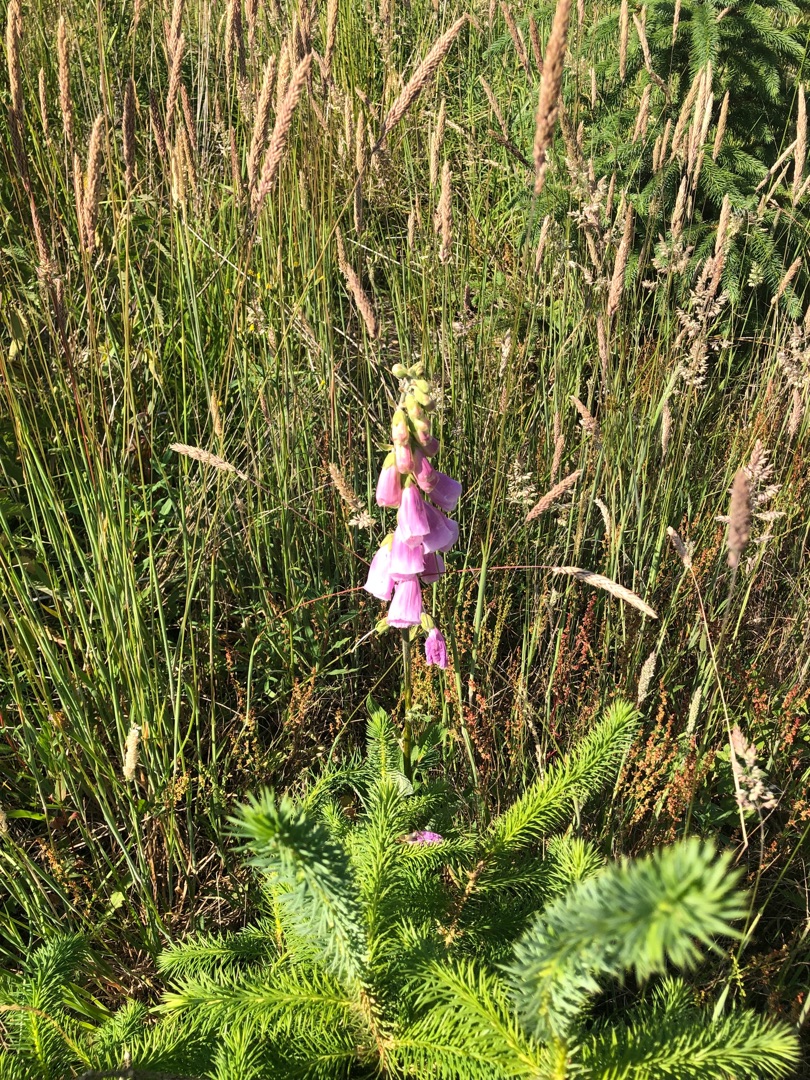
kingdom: Plantae
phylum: Tracheophyta
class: Magnoliopsida
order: Lamiales
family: Plantaginaceae
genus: Digitalis
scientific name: Digitalis purpurea
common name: Almindelig fingerbøl
